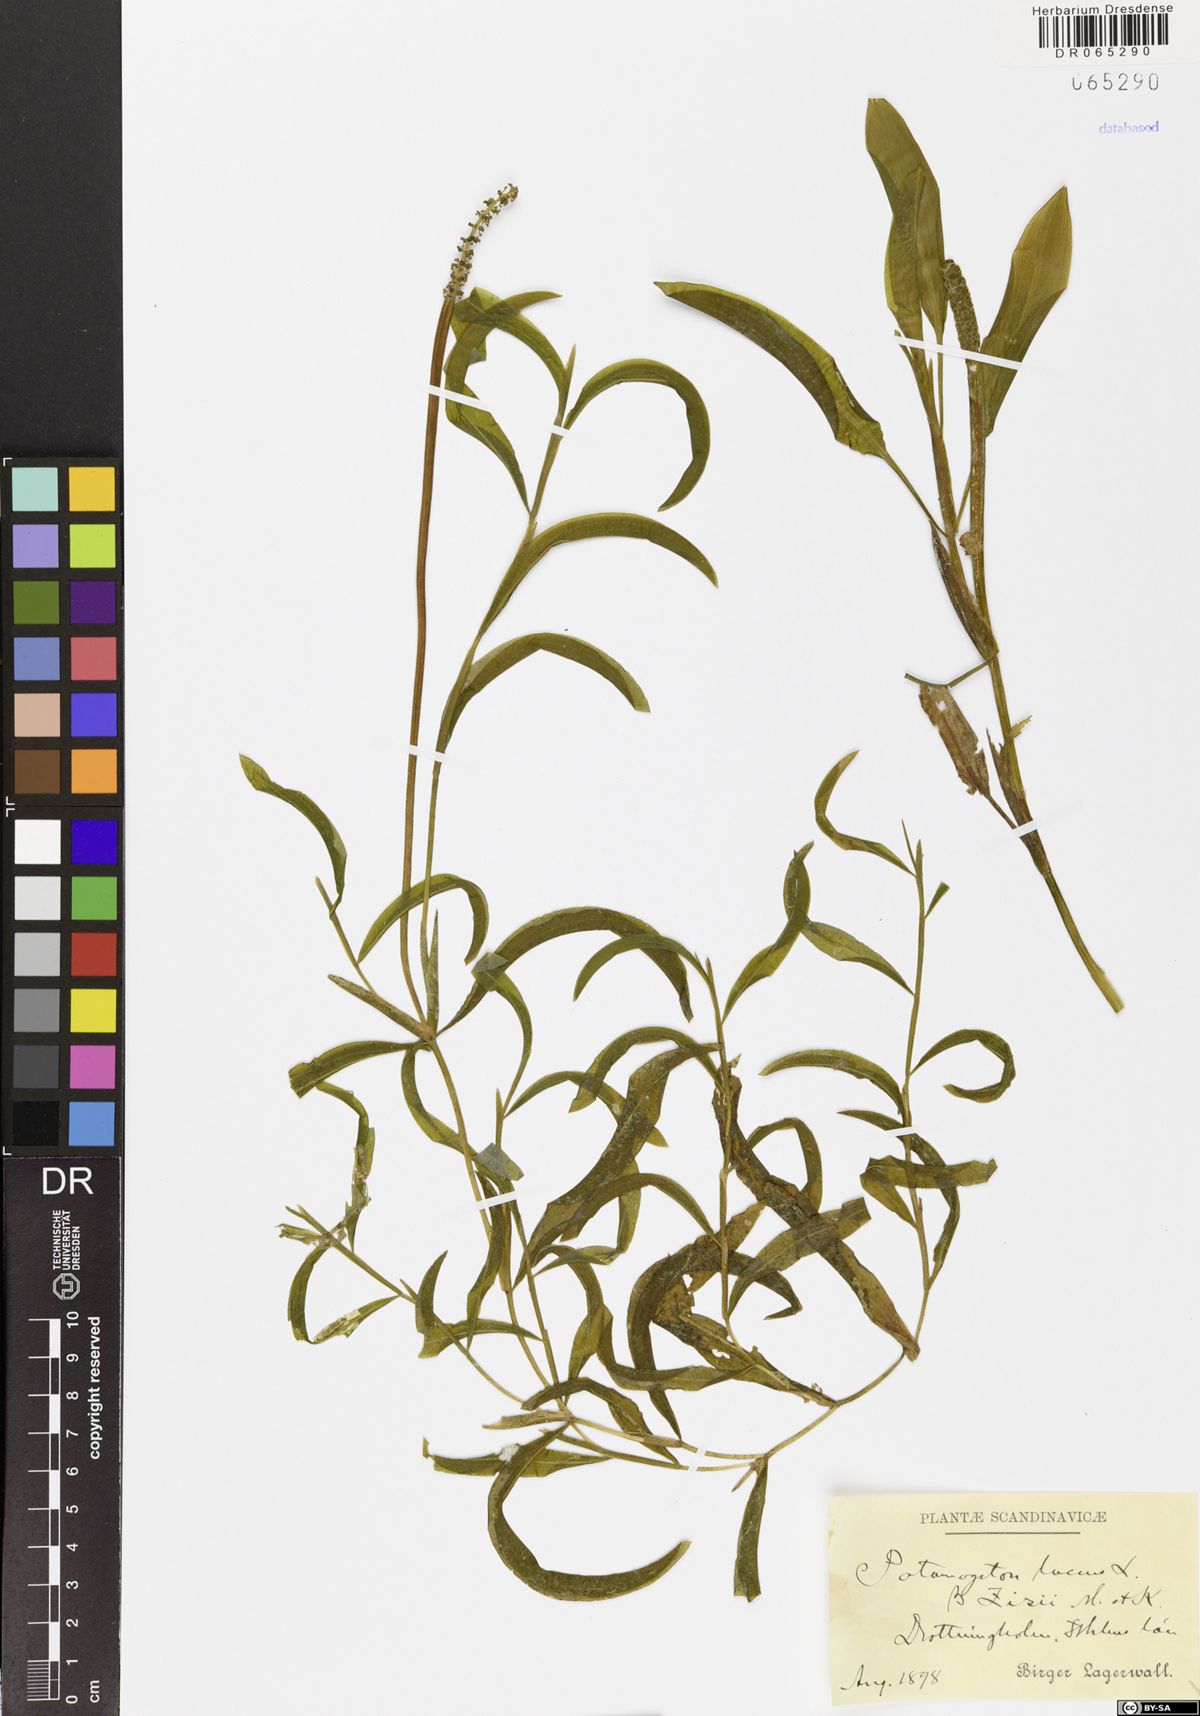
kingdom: Plantae
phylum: Tracheophyta
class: Liliopsida
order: Alismatales
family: Potamogetonaceae
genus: Potamogeton
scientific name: Potamogeton lucens
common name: Shining pondweed
